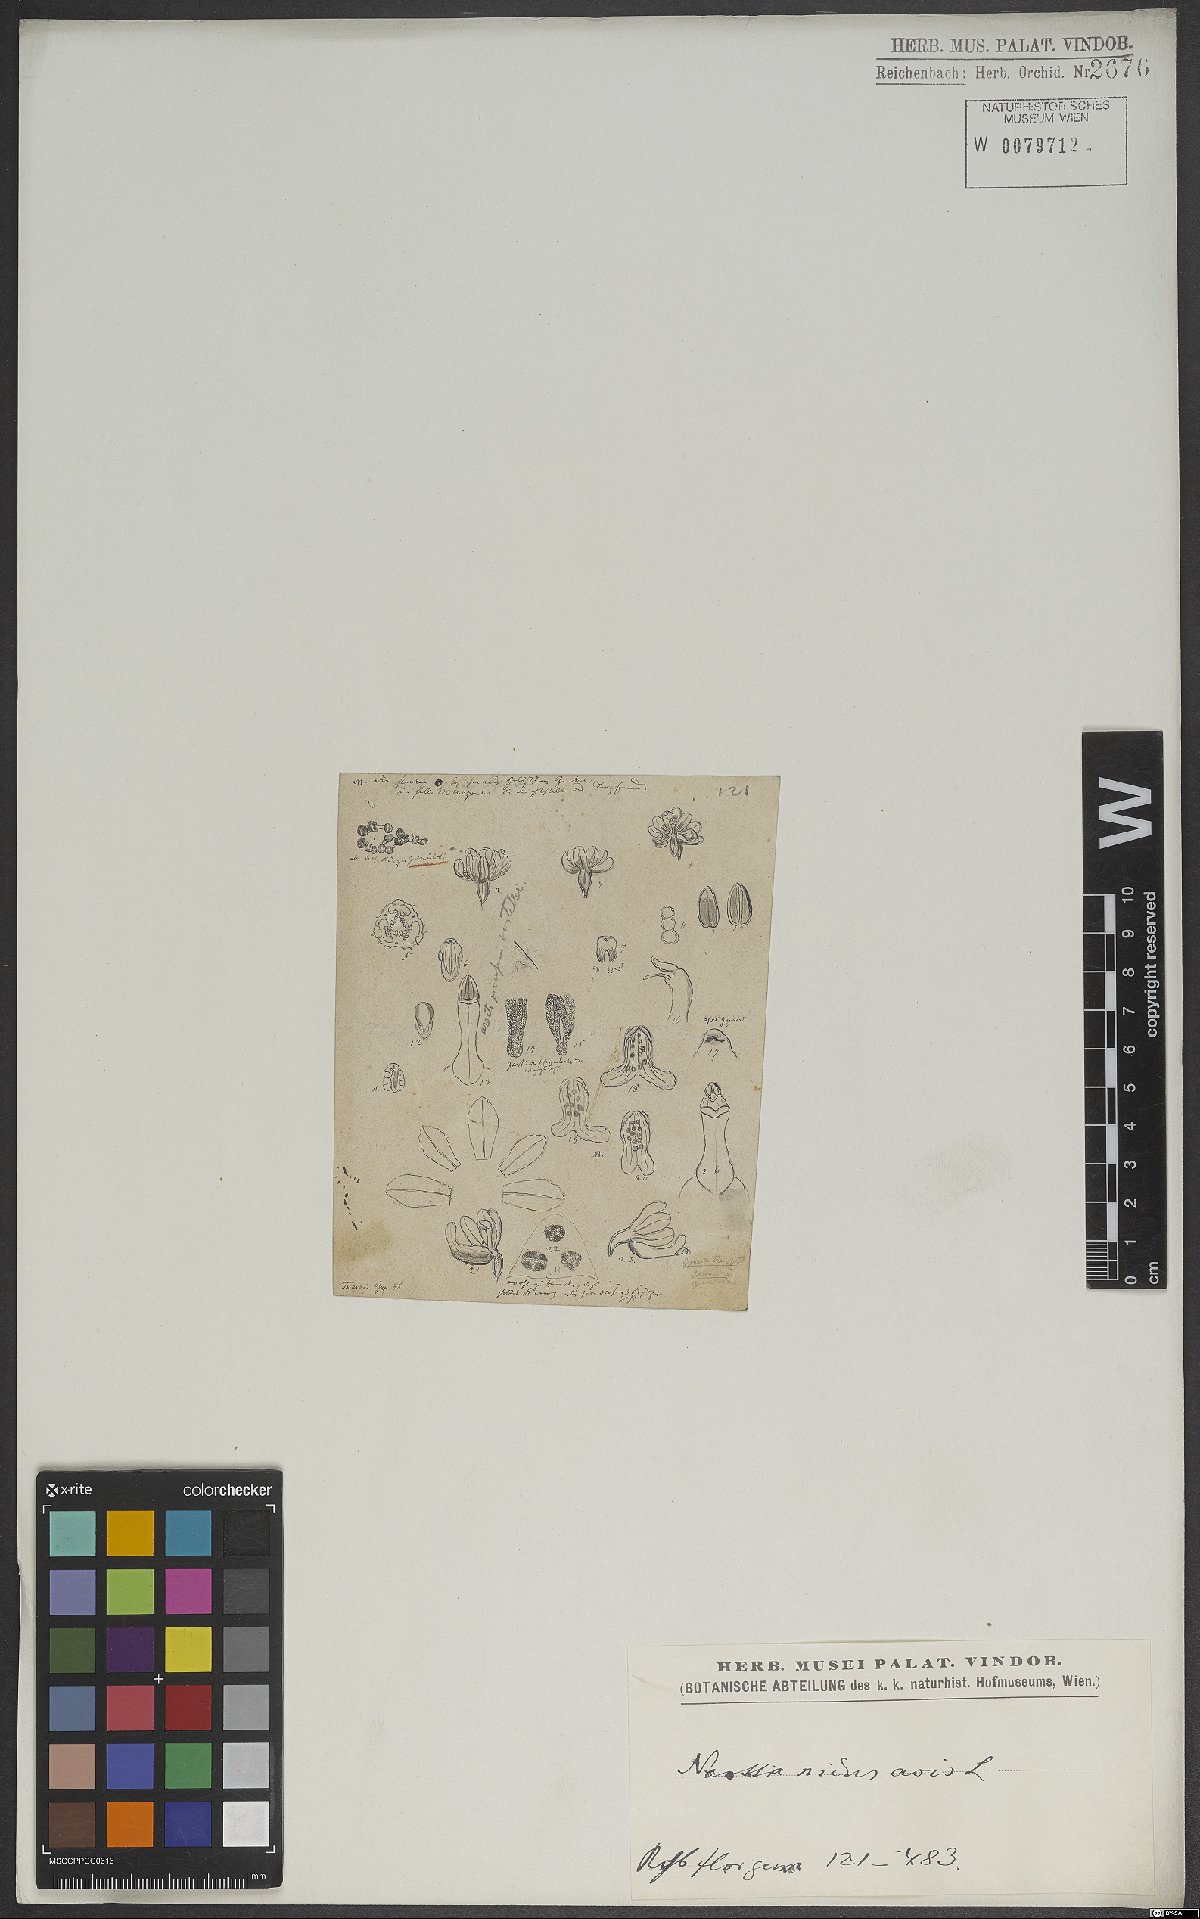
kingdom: Plantae
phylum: Tracheophyta
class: Liliopsida
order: Asparagales
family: Orchidaceae
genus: Neottia
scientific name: Neottia nidus-avis
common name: Bird's-nest orchid
